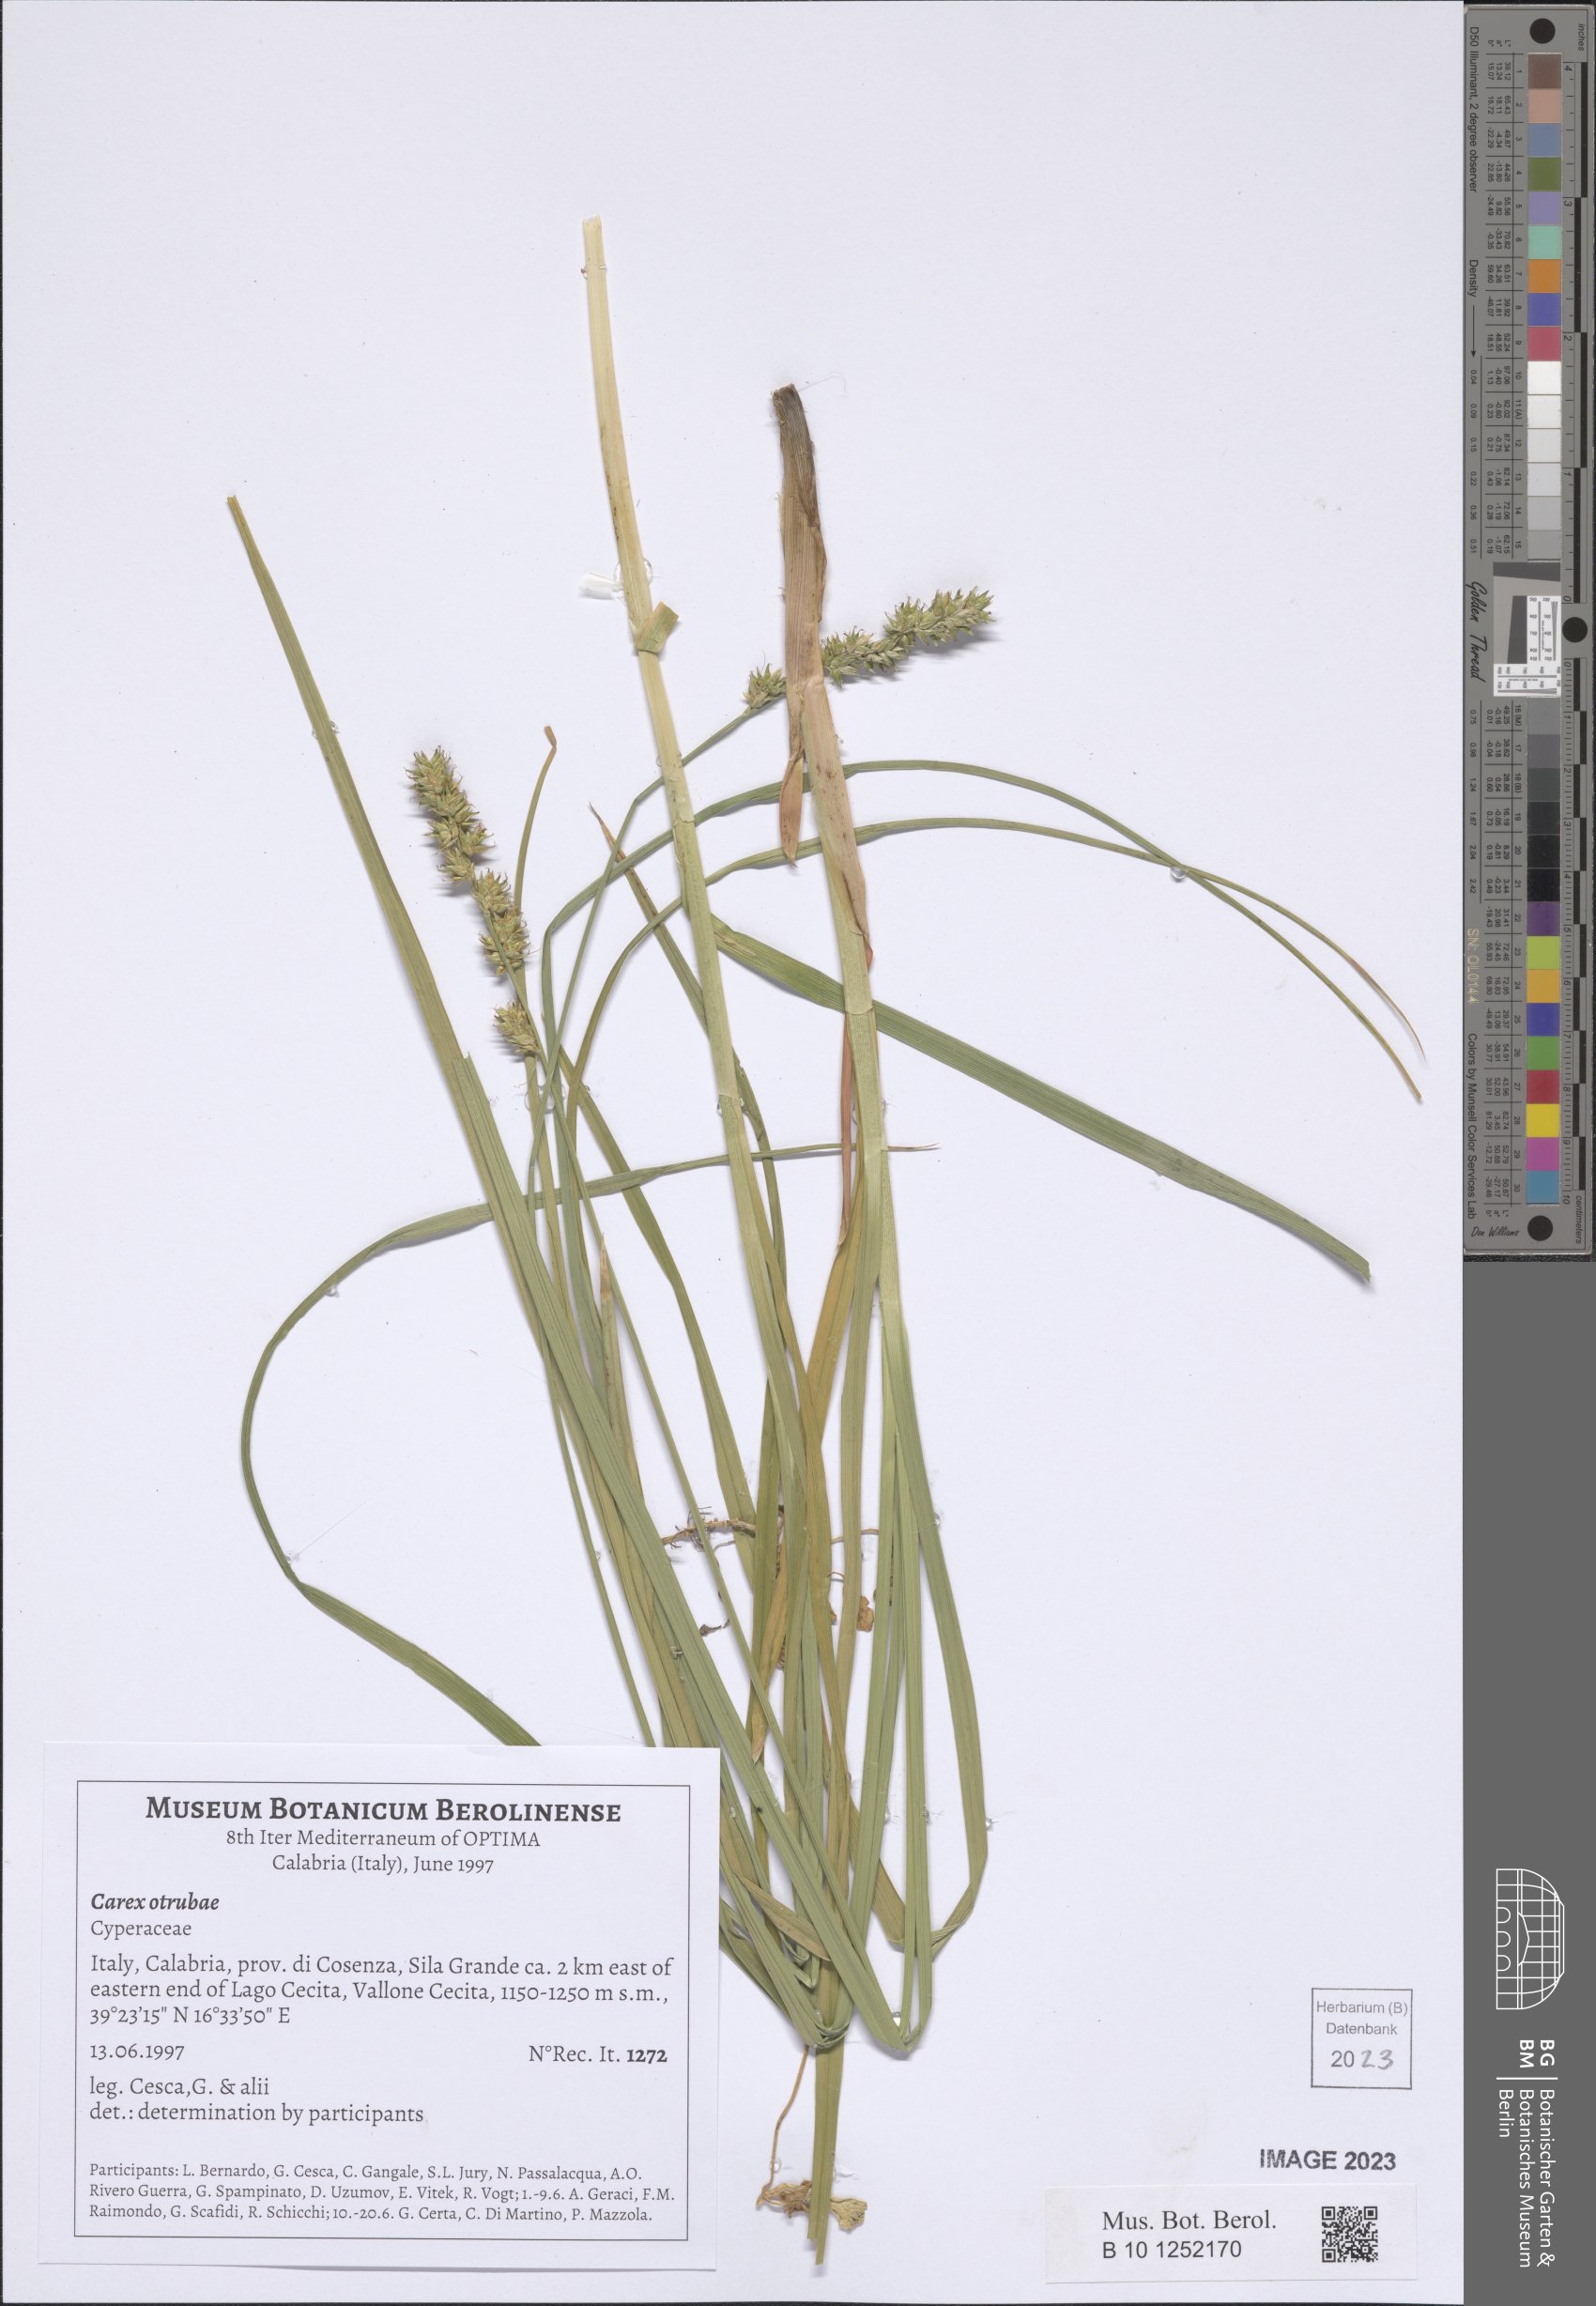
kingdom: Plantae
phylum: Tracheophyta
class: Liliopsida
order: Poales
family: Cyperaceae
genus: Carex
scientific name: Carex otrubae
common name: False fox-sedge
